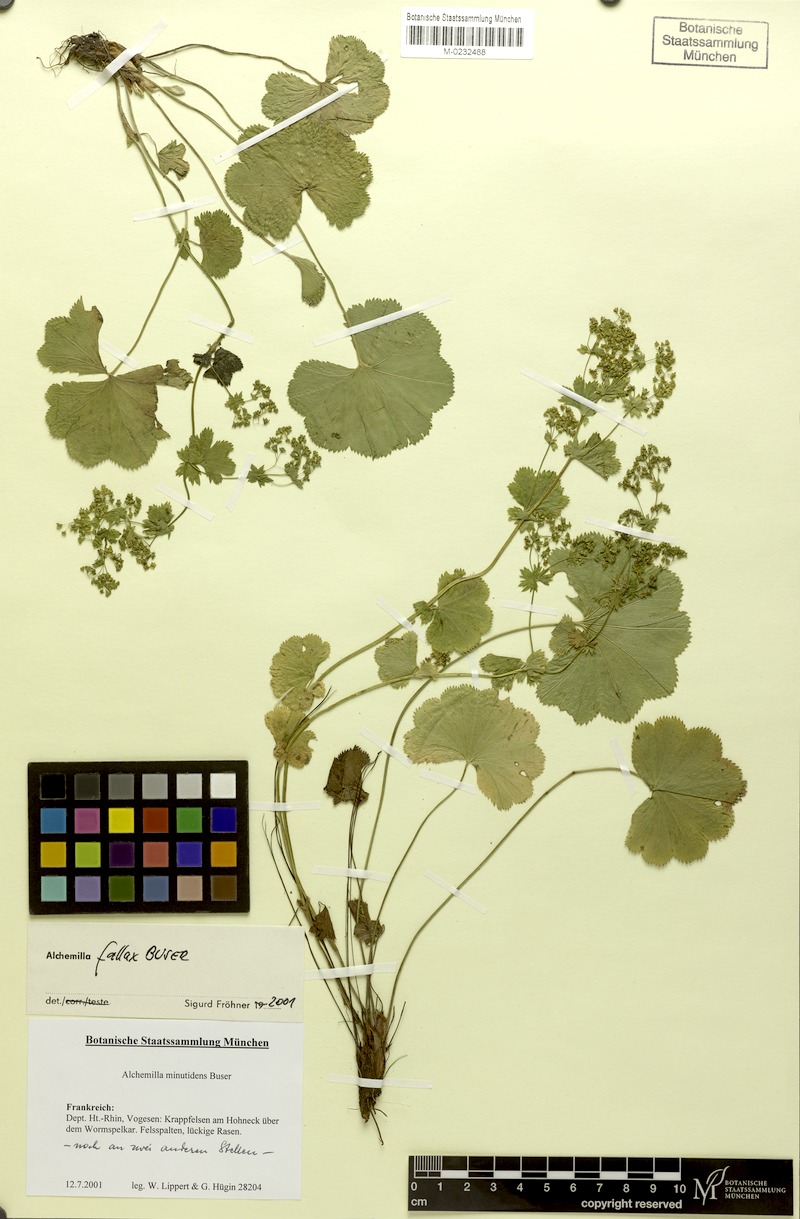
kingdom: Plantae
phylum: Tracheophyta
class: Magnoliopsida
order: Rosales
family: Rosaceae
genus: Alchemilla
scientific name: Alchemilla fallax
